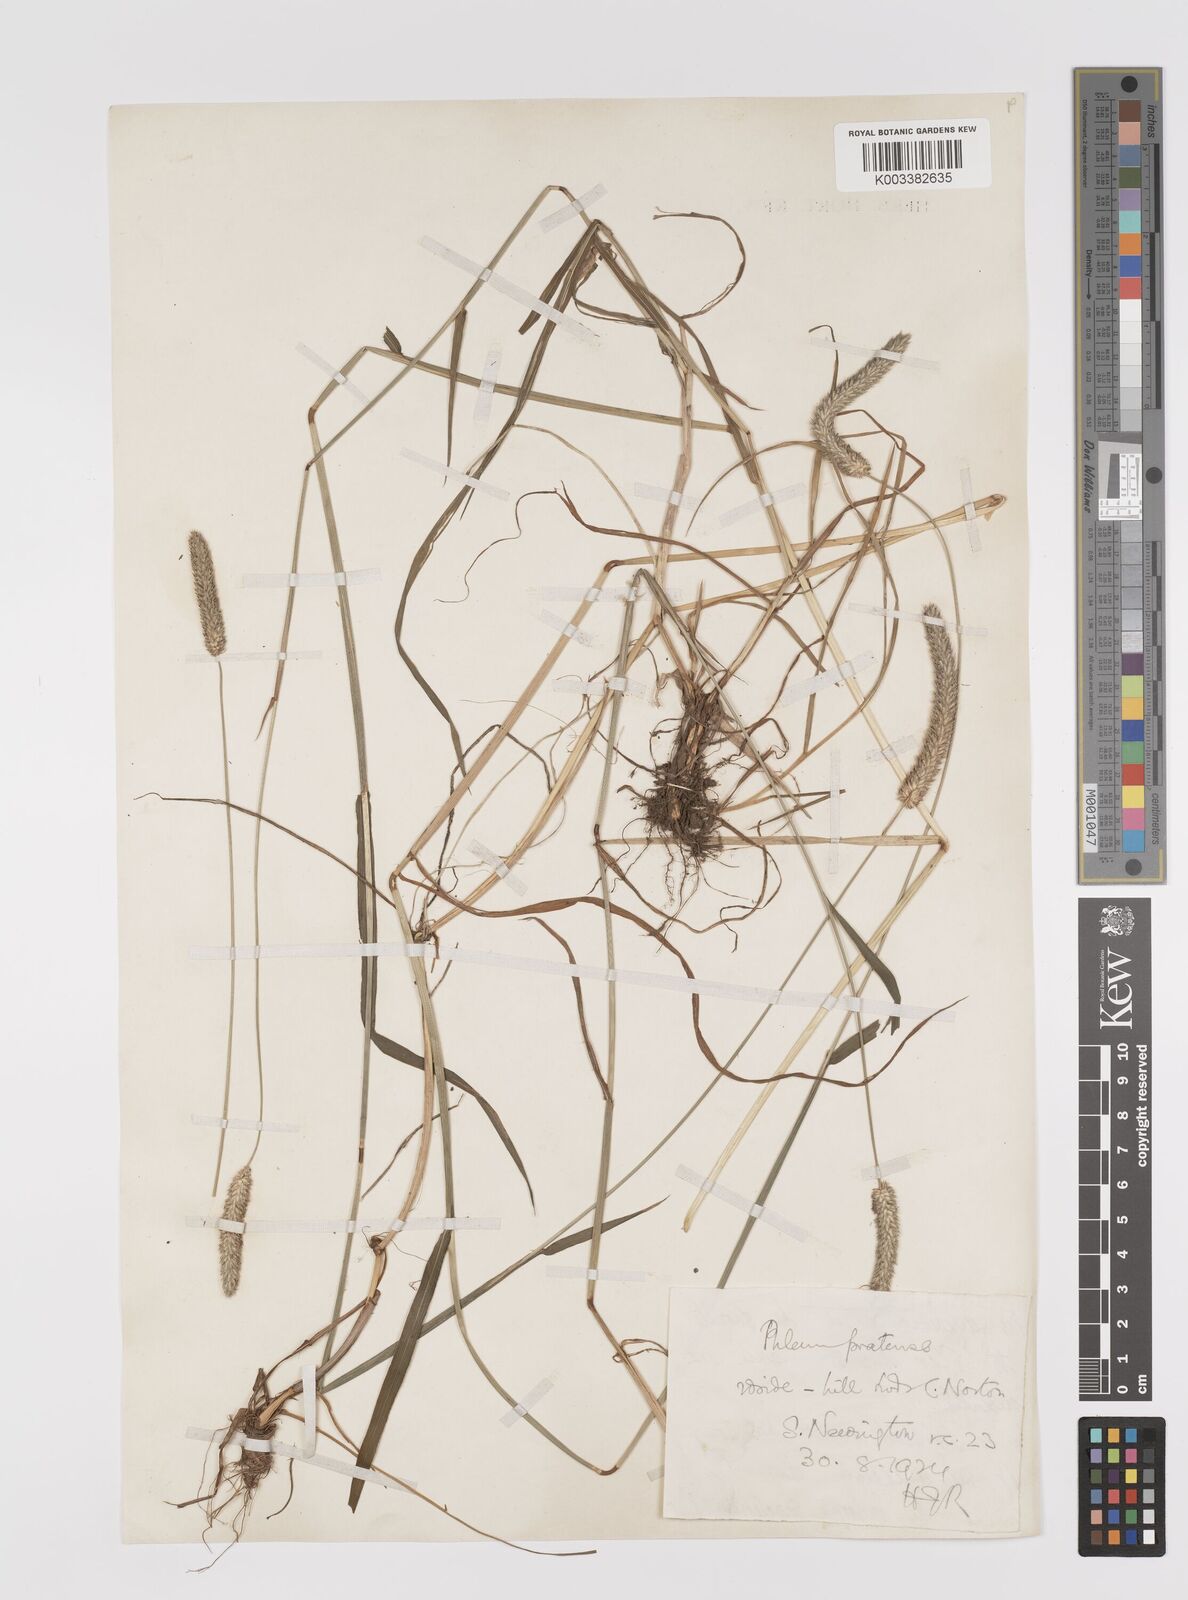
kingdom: Plantae
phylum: Tracheophyta
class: Liliopsida
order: Poales
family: Poaceae
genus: Phleum
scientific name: Phleum pratense
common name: Timothy grass
